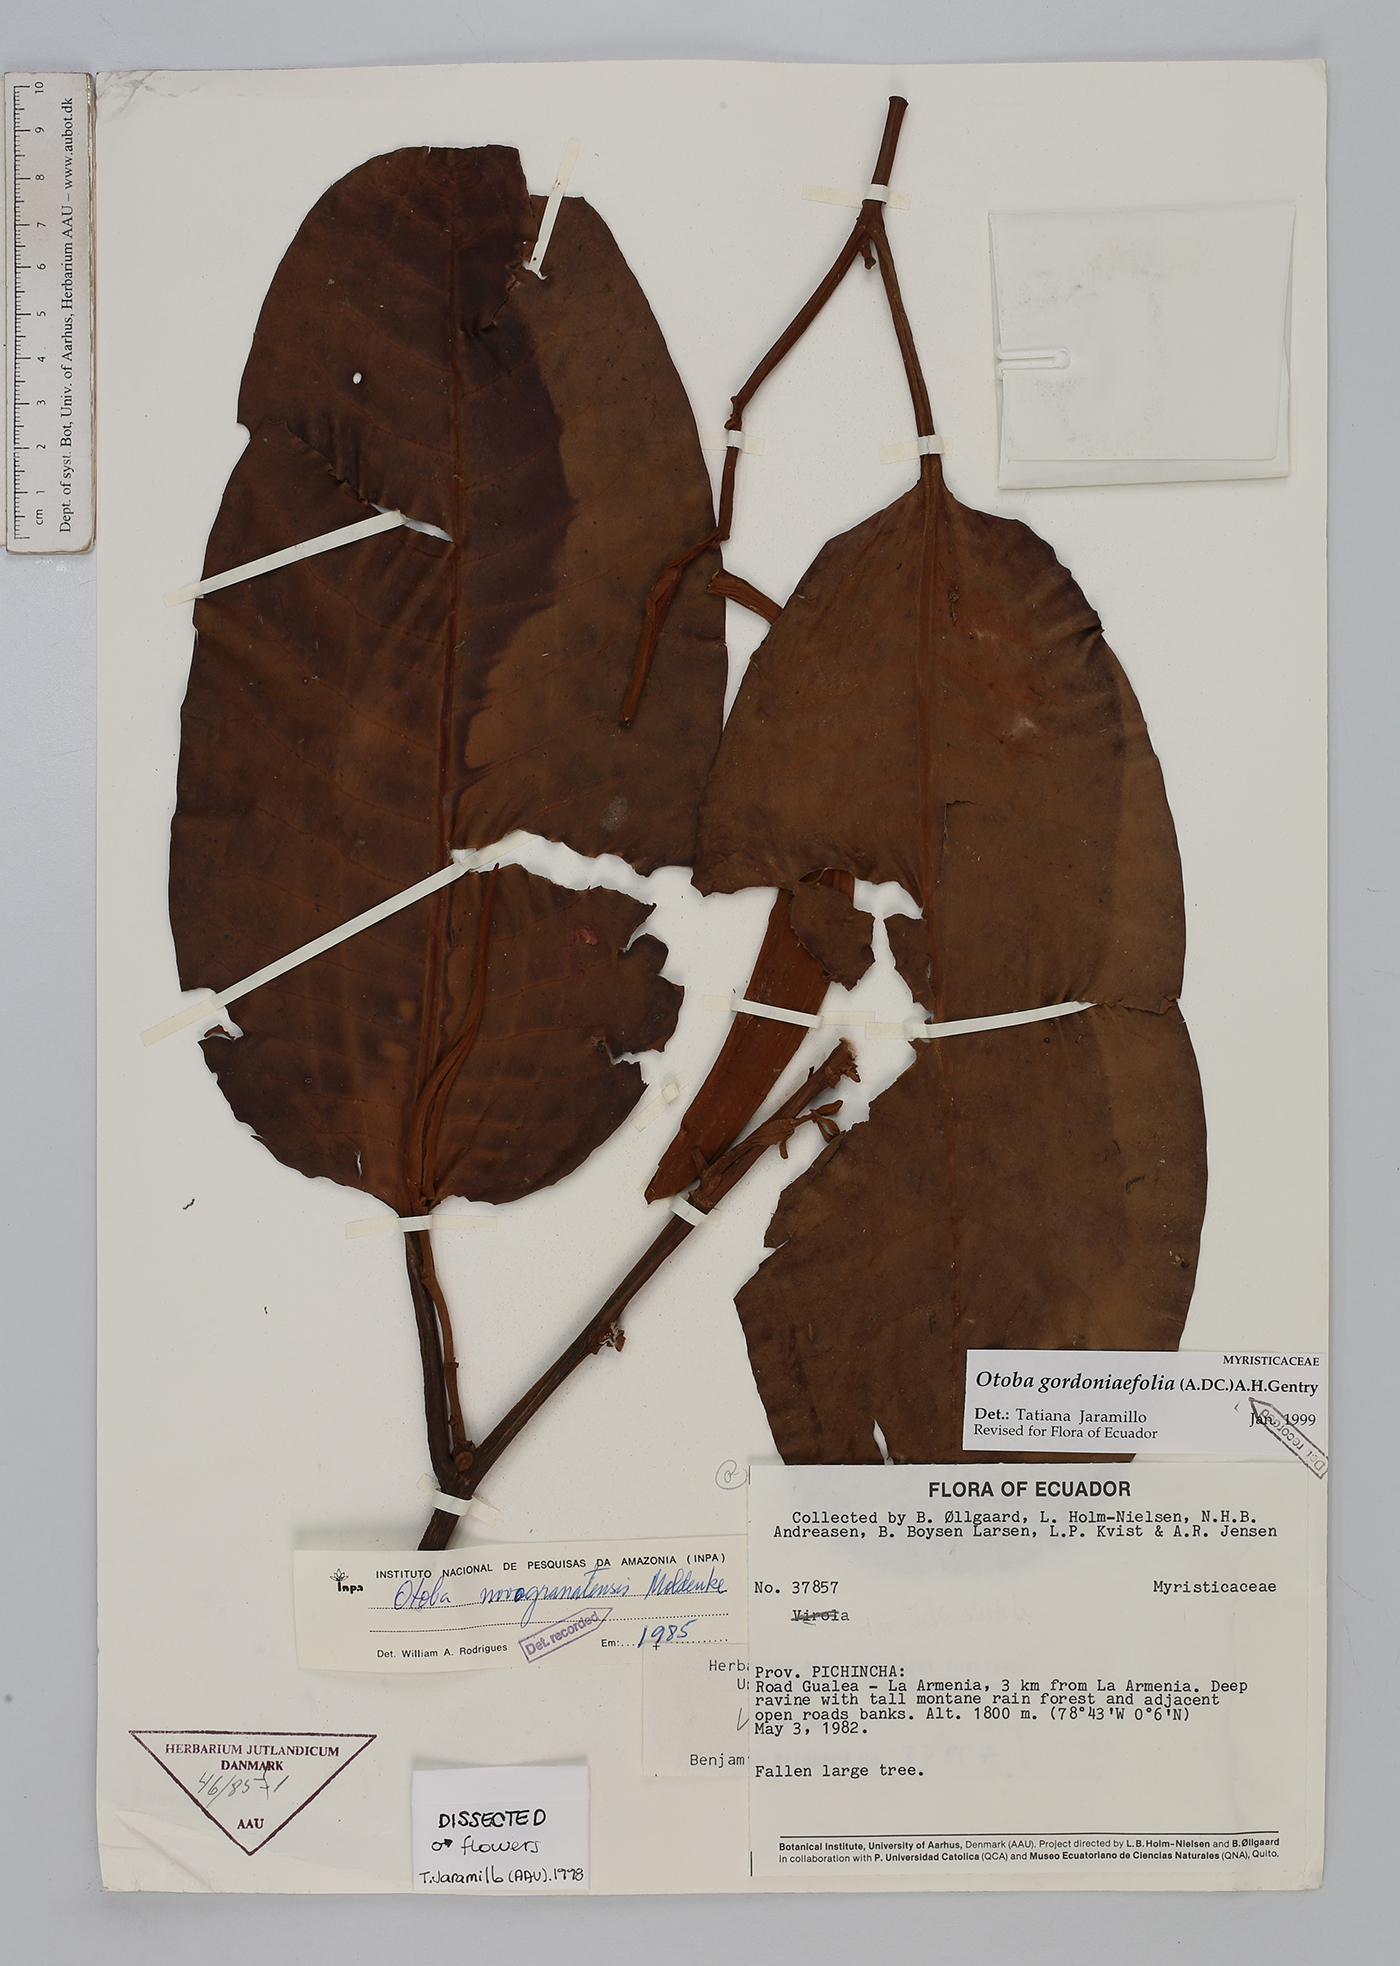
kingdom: Plantae
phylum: Tracheophyta
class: Magnoliopsida
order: Magnoliales
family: Myristicaceae
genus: Otoba
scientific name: Otoba gordoniifolia
